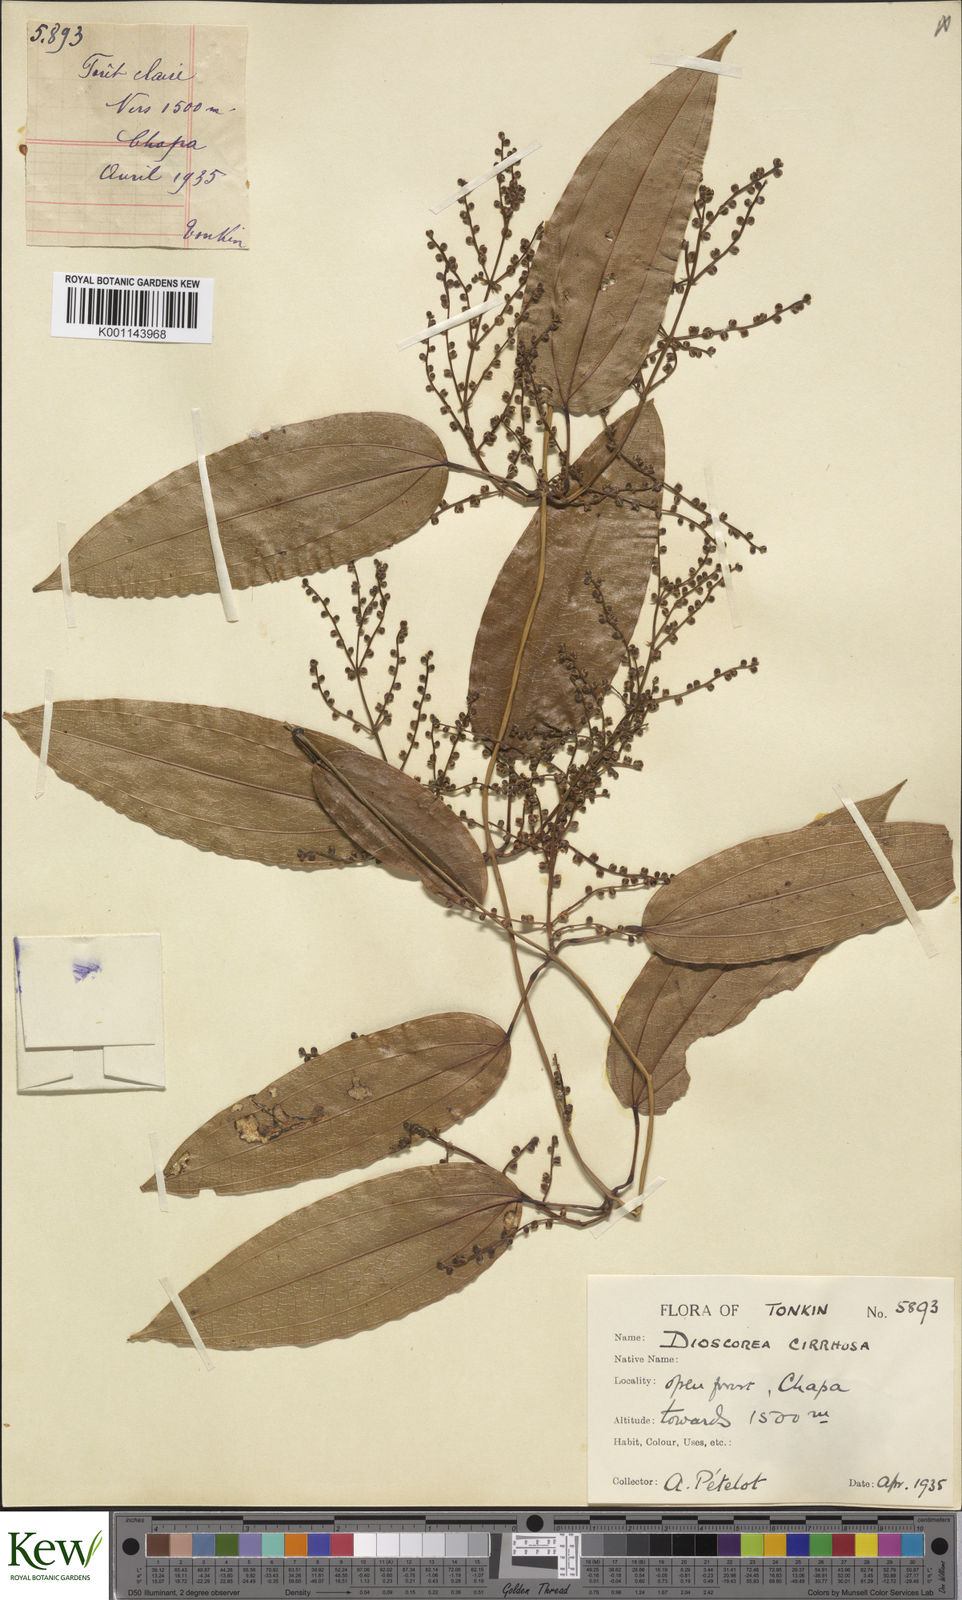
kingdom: Plantae
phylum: Tracheophyta
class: Liliopsida
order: Dioscoreales
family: Dioscoreaceae
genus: Dioscorea
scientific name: Dioscorea cirrhosa
